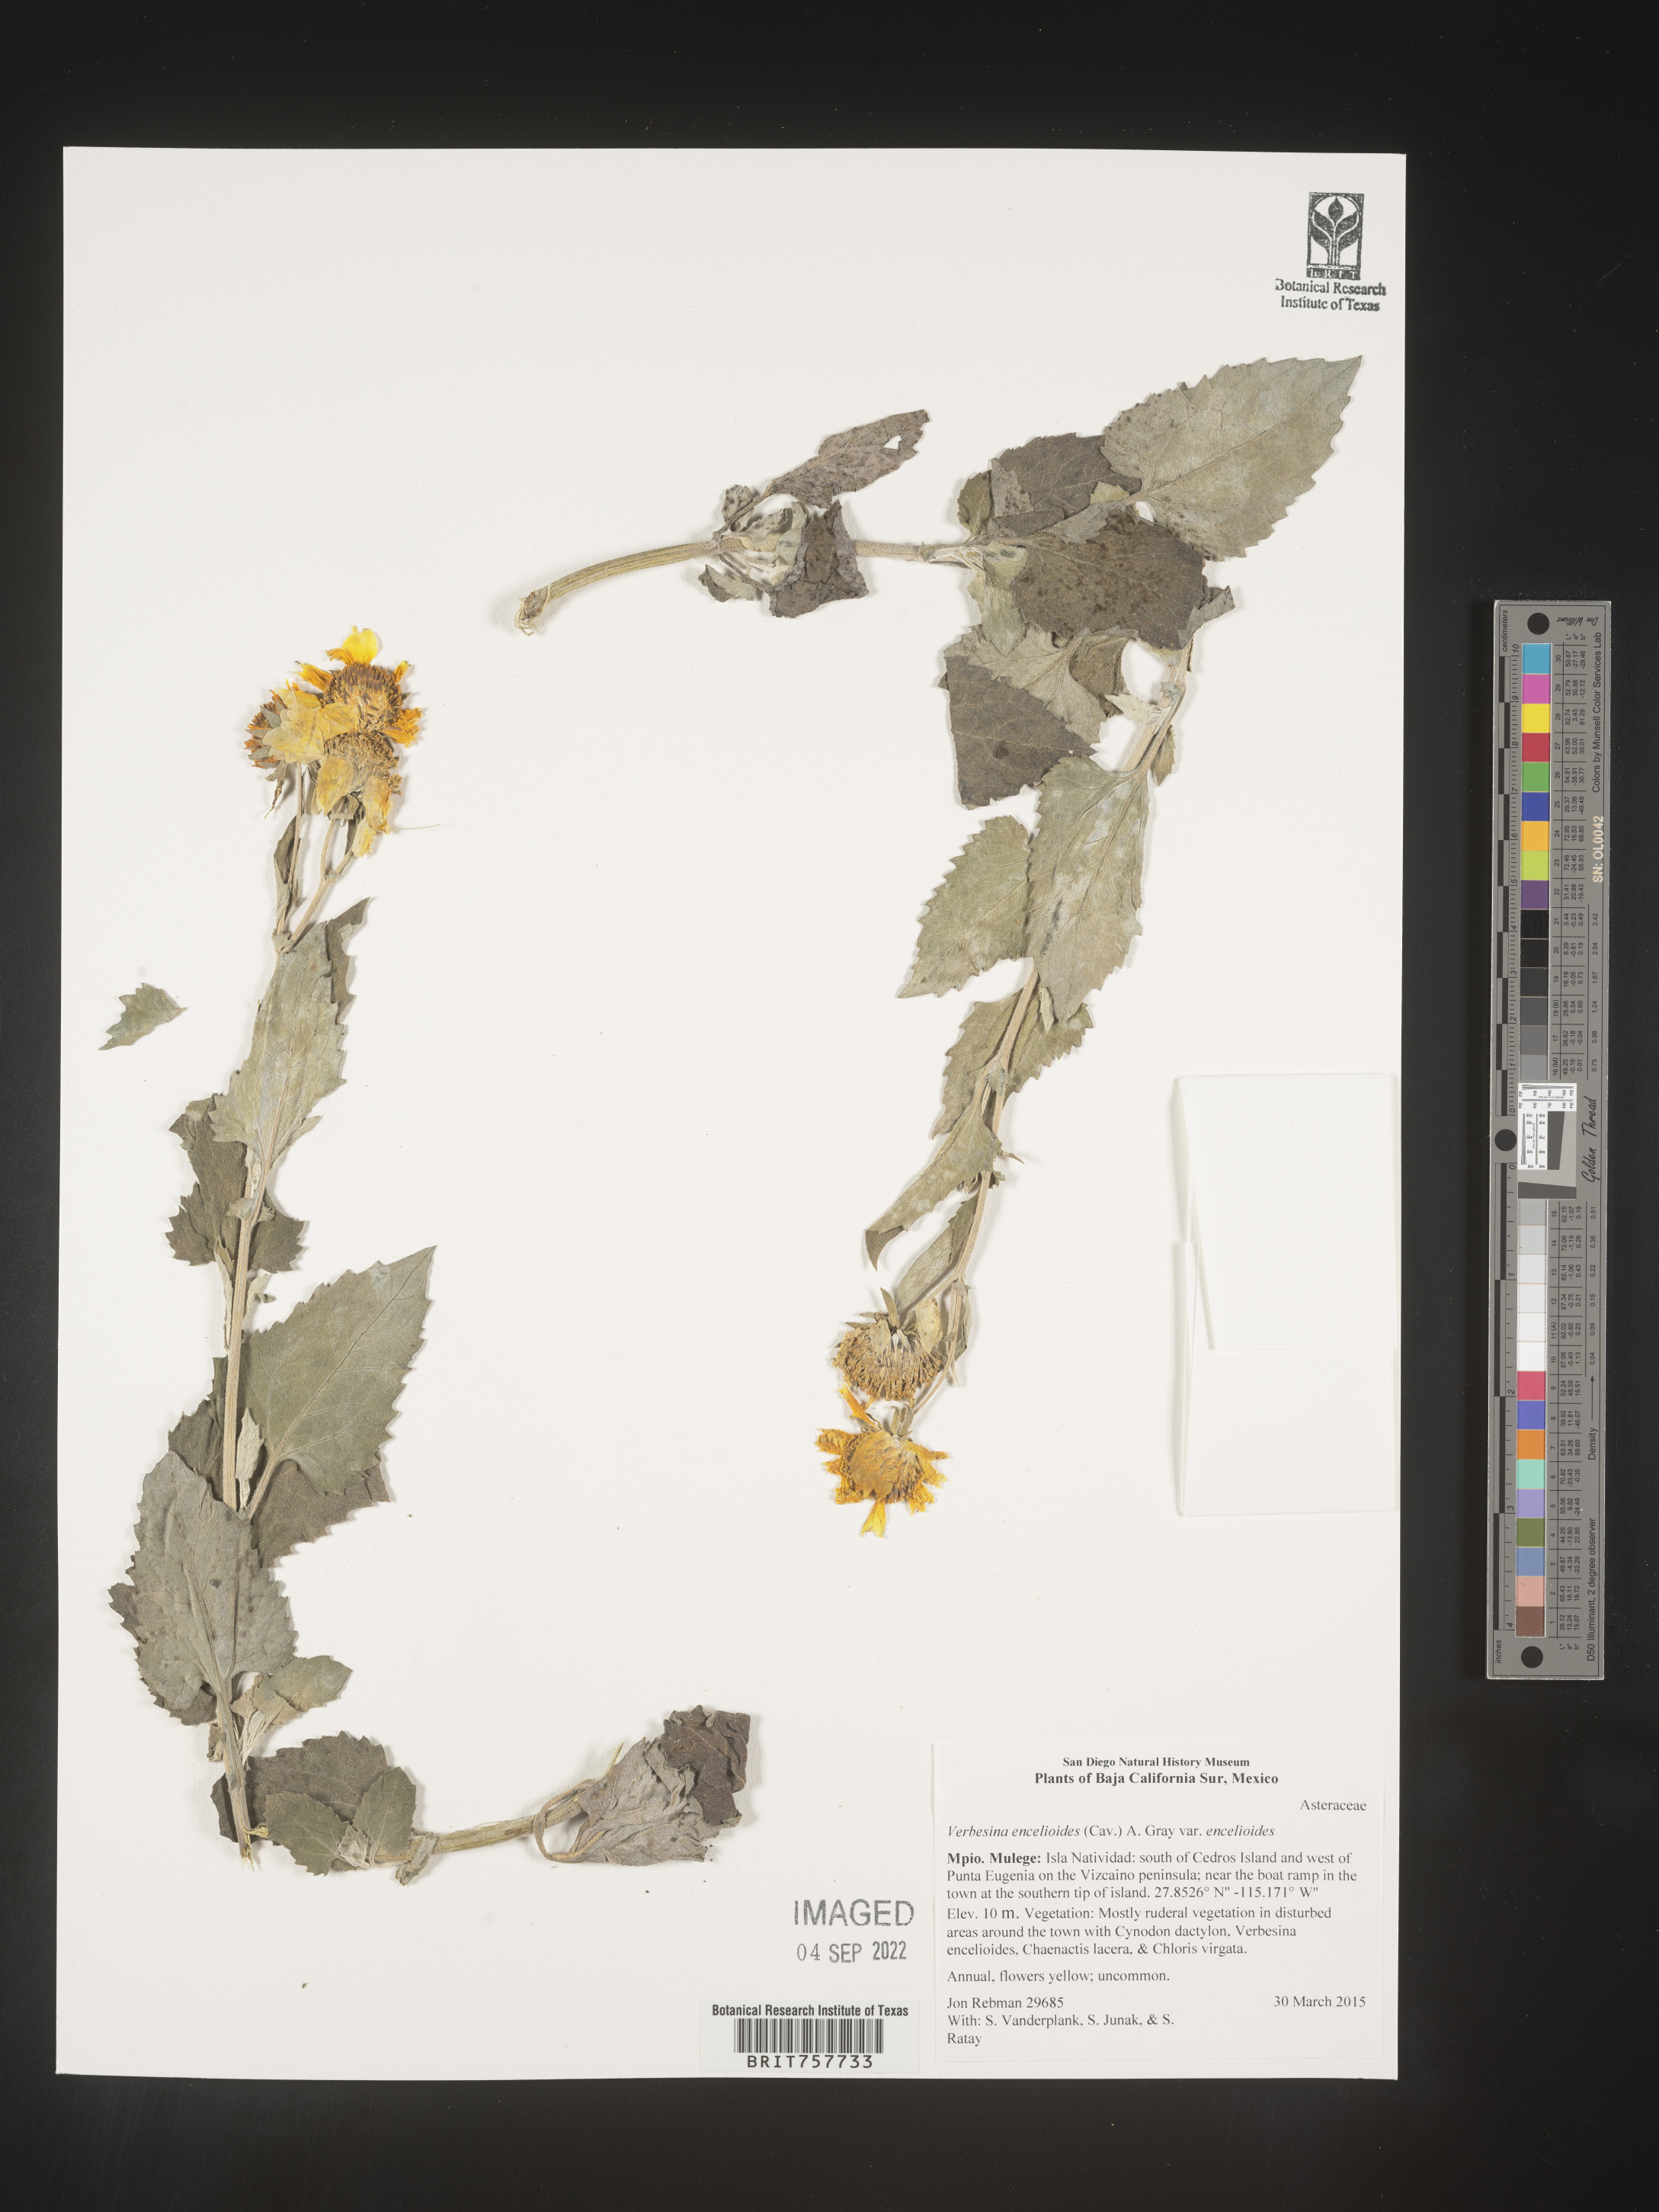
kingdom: Plantae
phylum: Tracheophyta
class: Magnoliopsida
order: Asterales
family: Asteraceae
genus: Verbesina
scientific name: Verbesina
